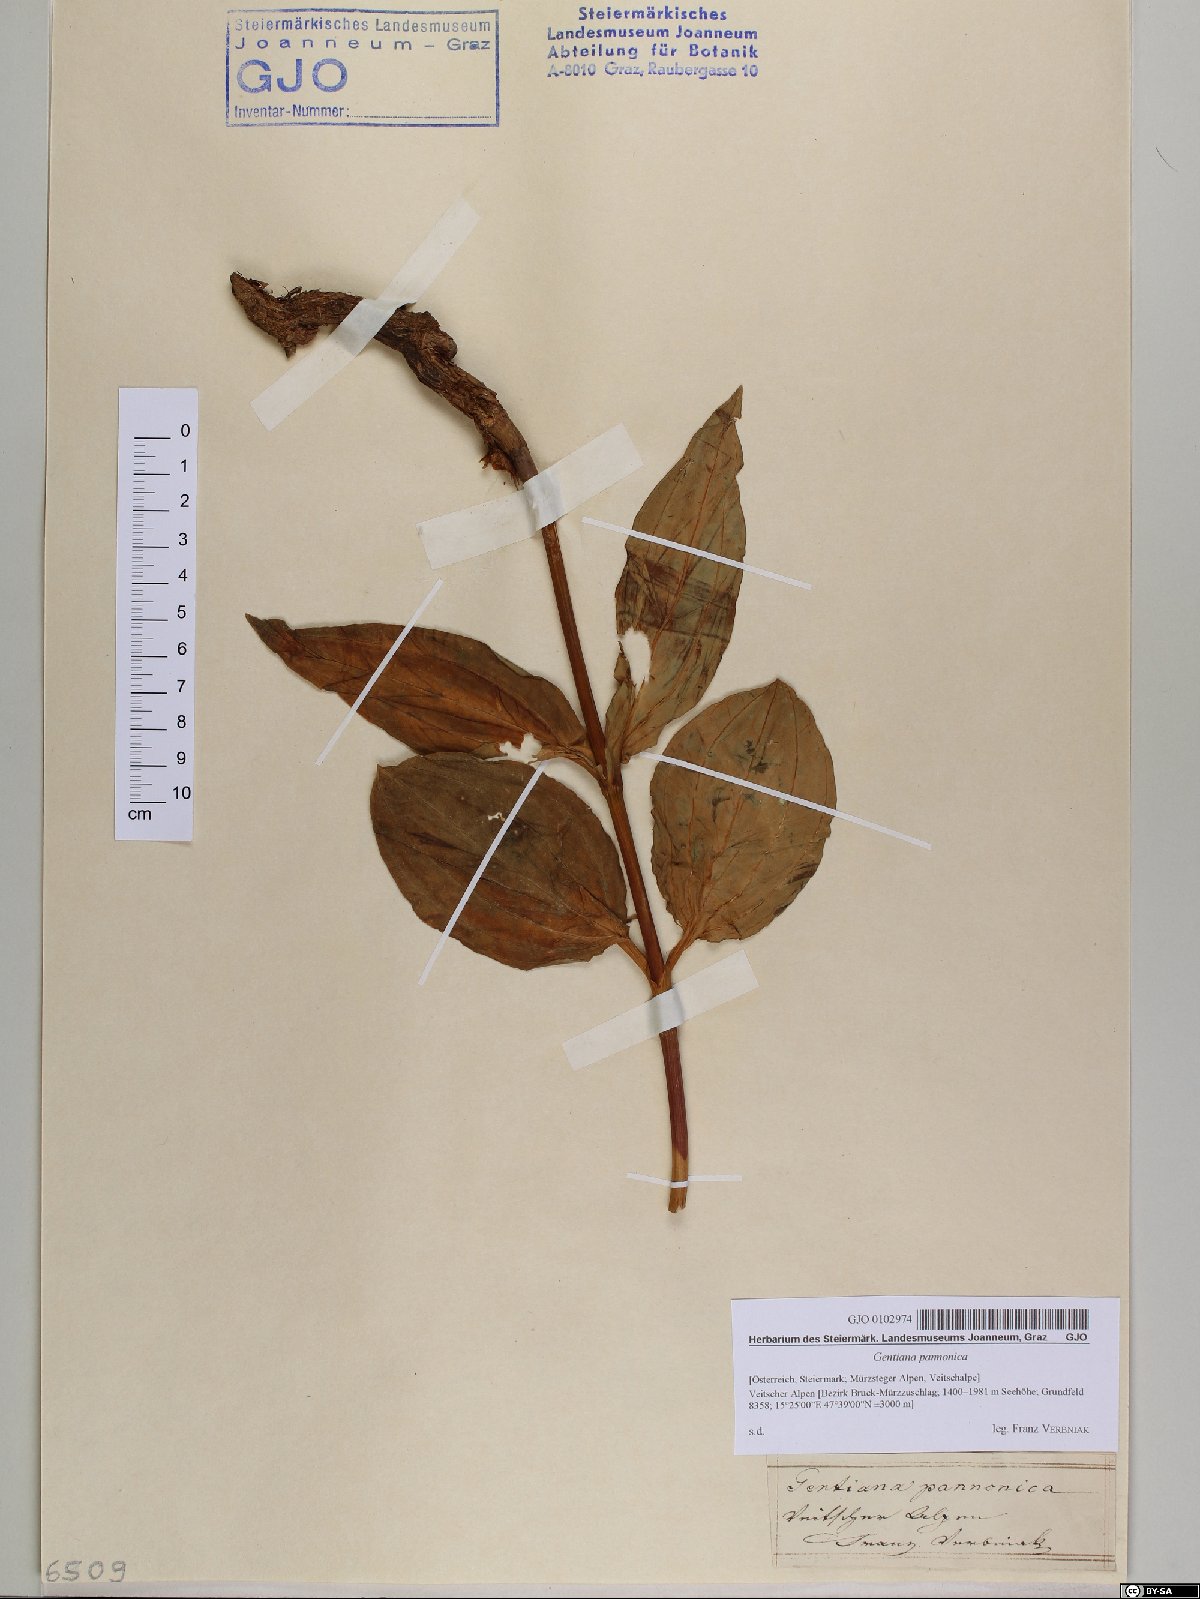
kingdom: Plantae
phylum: Tracheophyta
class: Magnoliopsida
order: Gentianales
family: Gentianaceae
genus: Gentiana
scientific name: Gentiana pannonica
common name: Hungarian gentian
